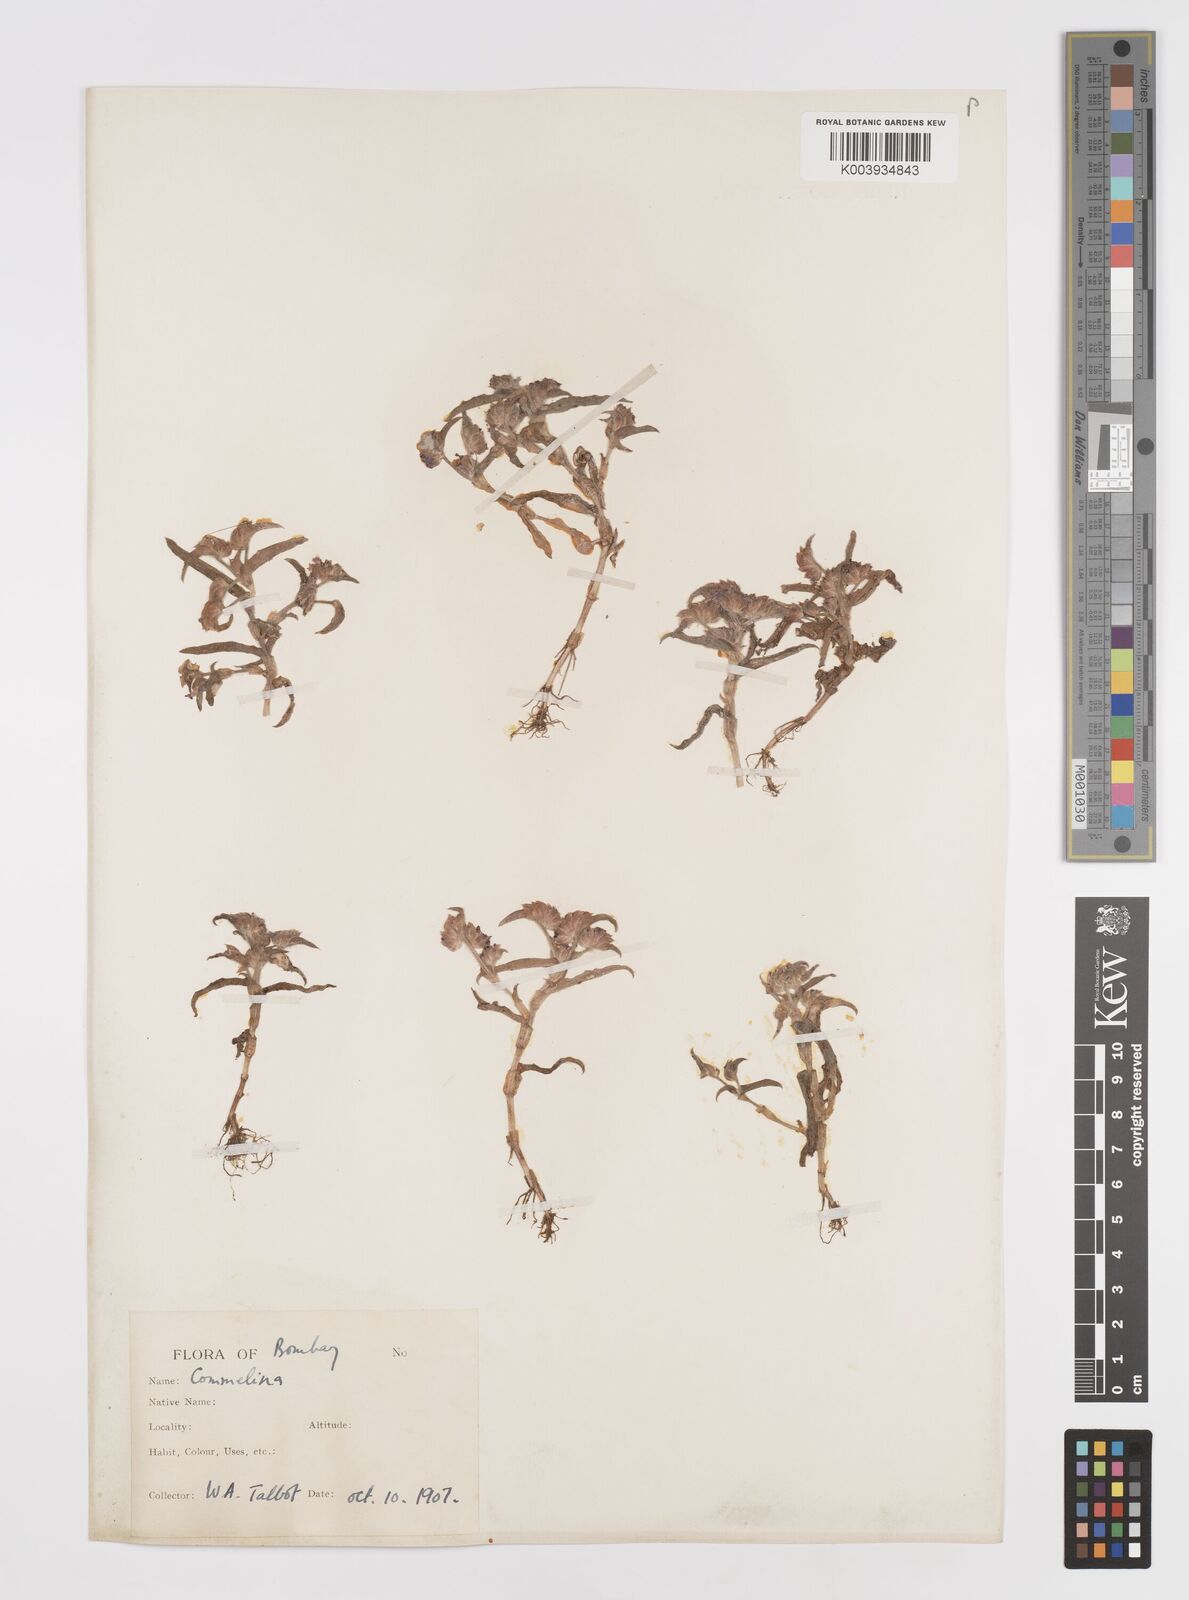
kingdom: Plantae
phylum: Tracheophyta
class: Liliopsida
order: Commelinales
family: Commelinaceae
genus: Cyanotis
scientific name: Cyanotis
